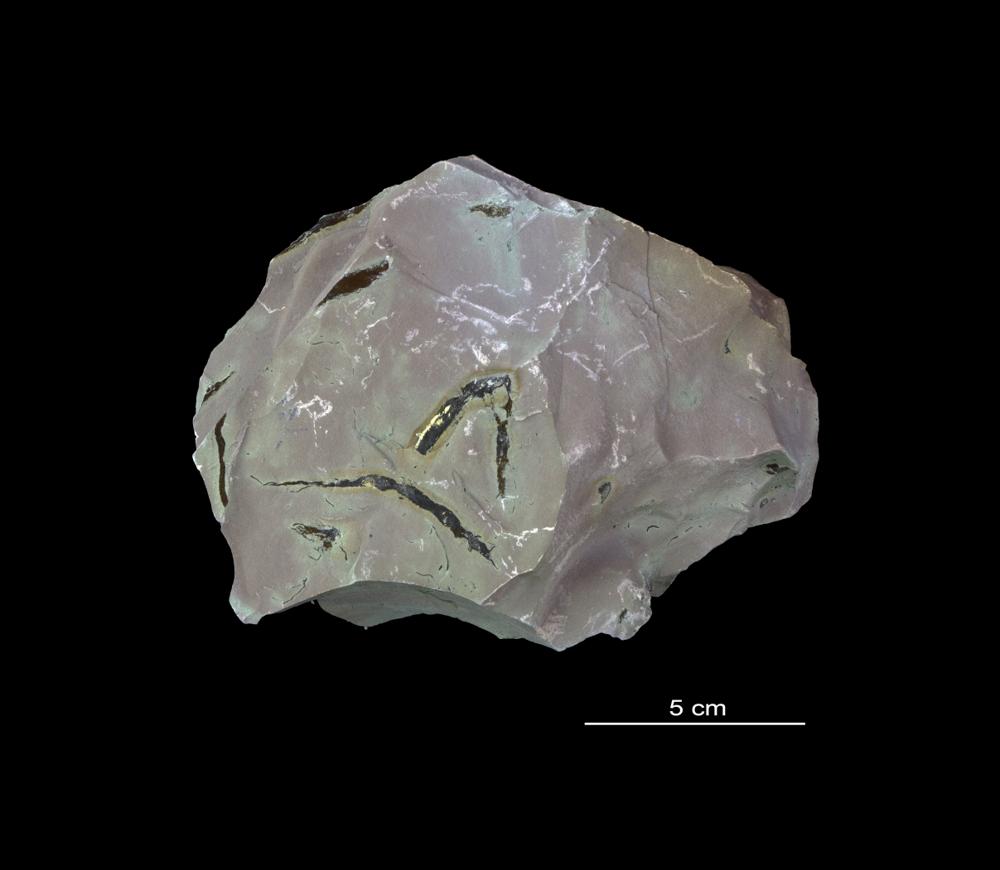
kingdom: Chromista
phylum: Foraminifera
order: Astrorhizida
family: Hyperamminidae
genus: Platysolenites
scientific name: Platysolenites
